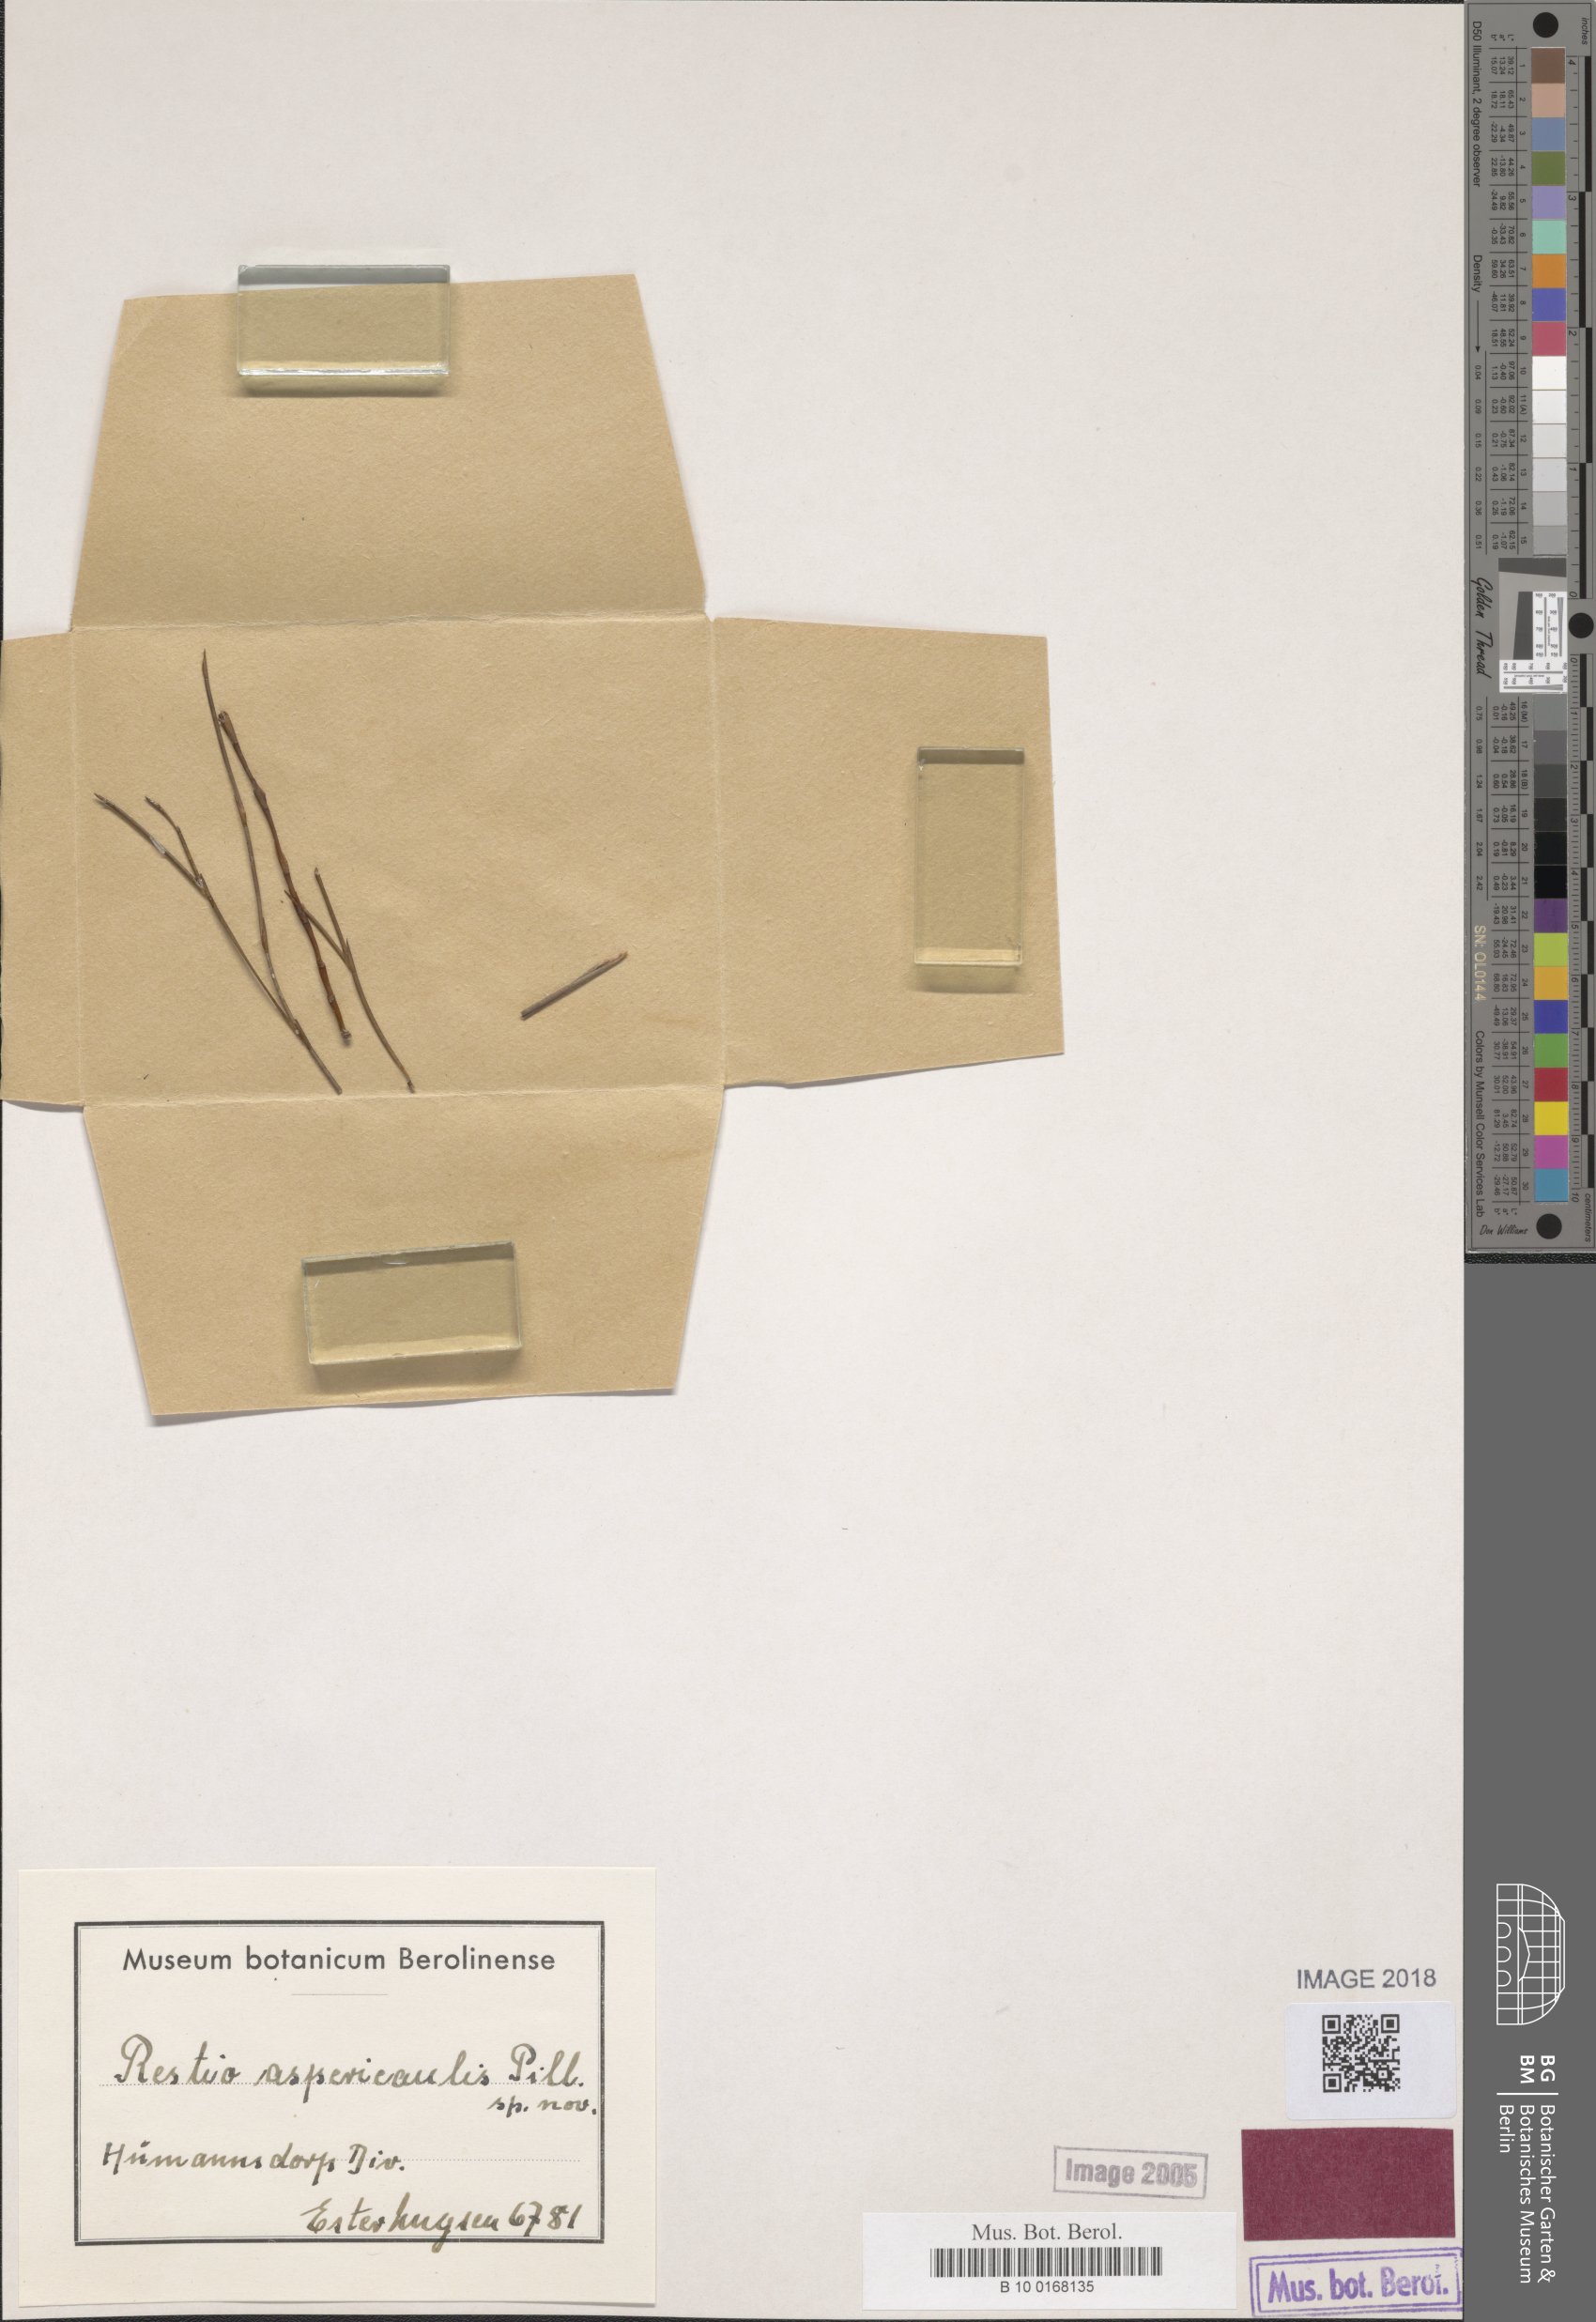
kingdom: Plantae
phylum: Tracheophyta
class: Liliopsida
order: Poales
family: Restionaceae
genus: Platycaulos
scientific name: Platycaulos anceps
